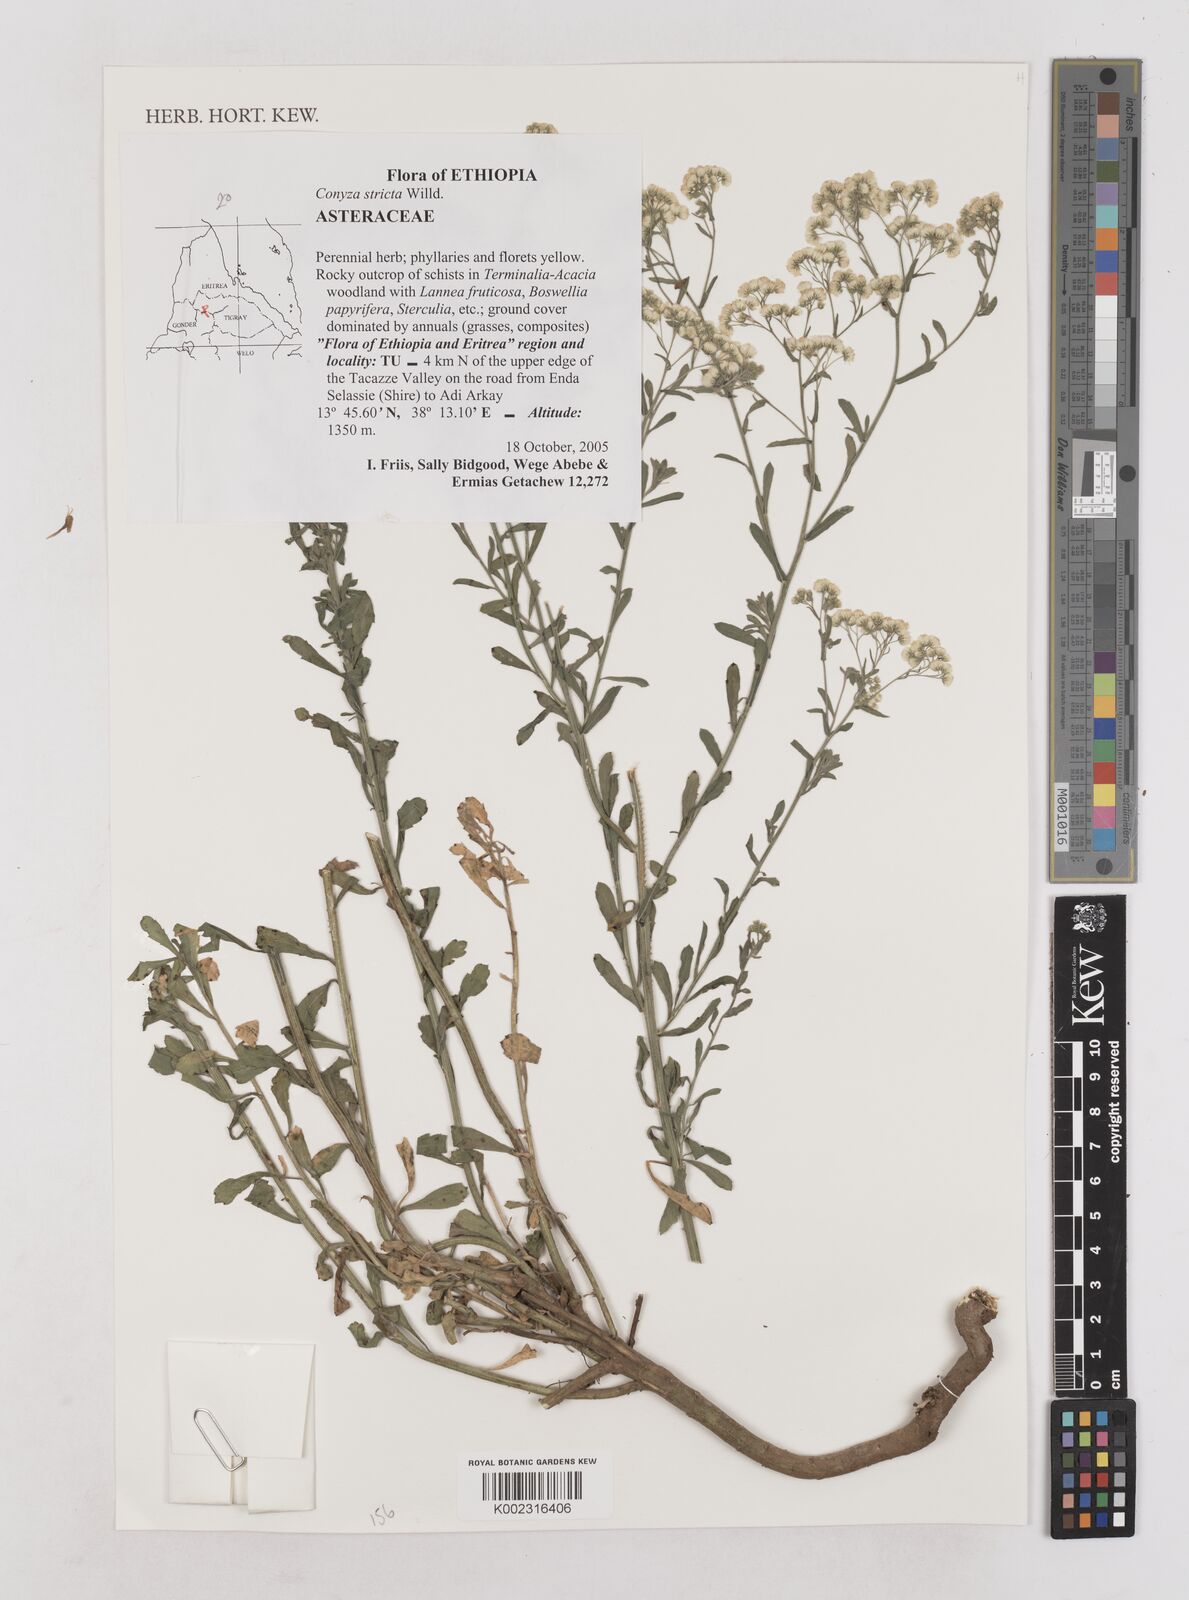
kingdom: Plantae
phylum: Tracheophyta
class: Magnoliopsida
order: Asterales
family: Asteraceae
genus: Nidorella
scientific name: Nidorella triloba
